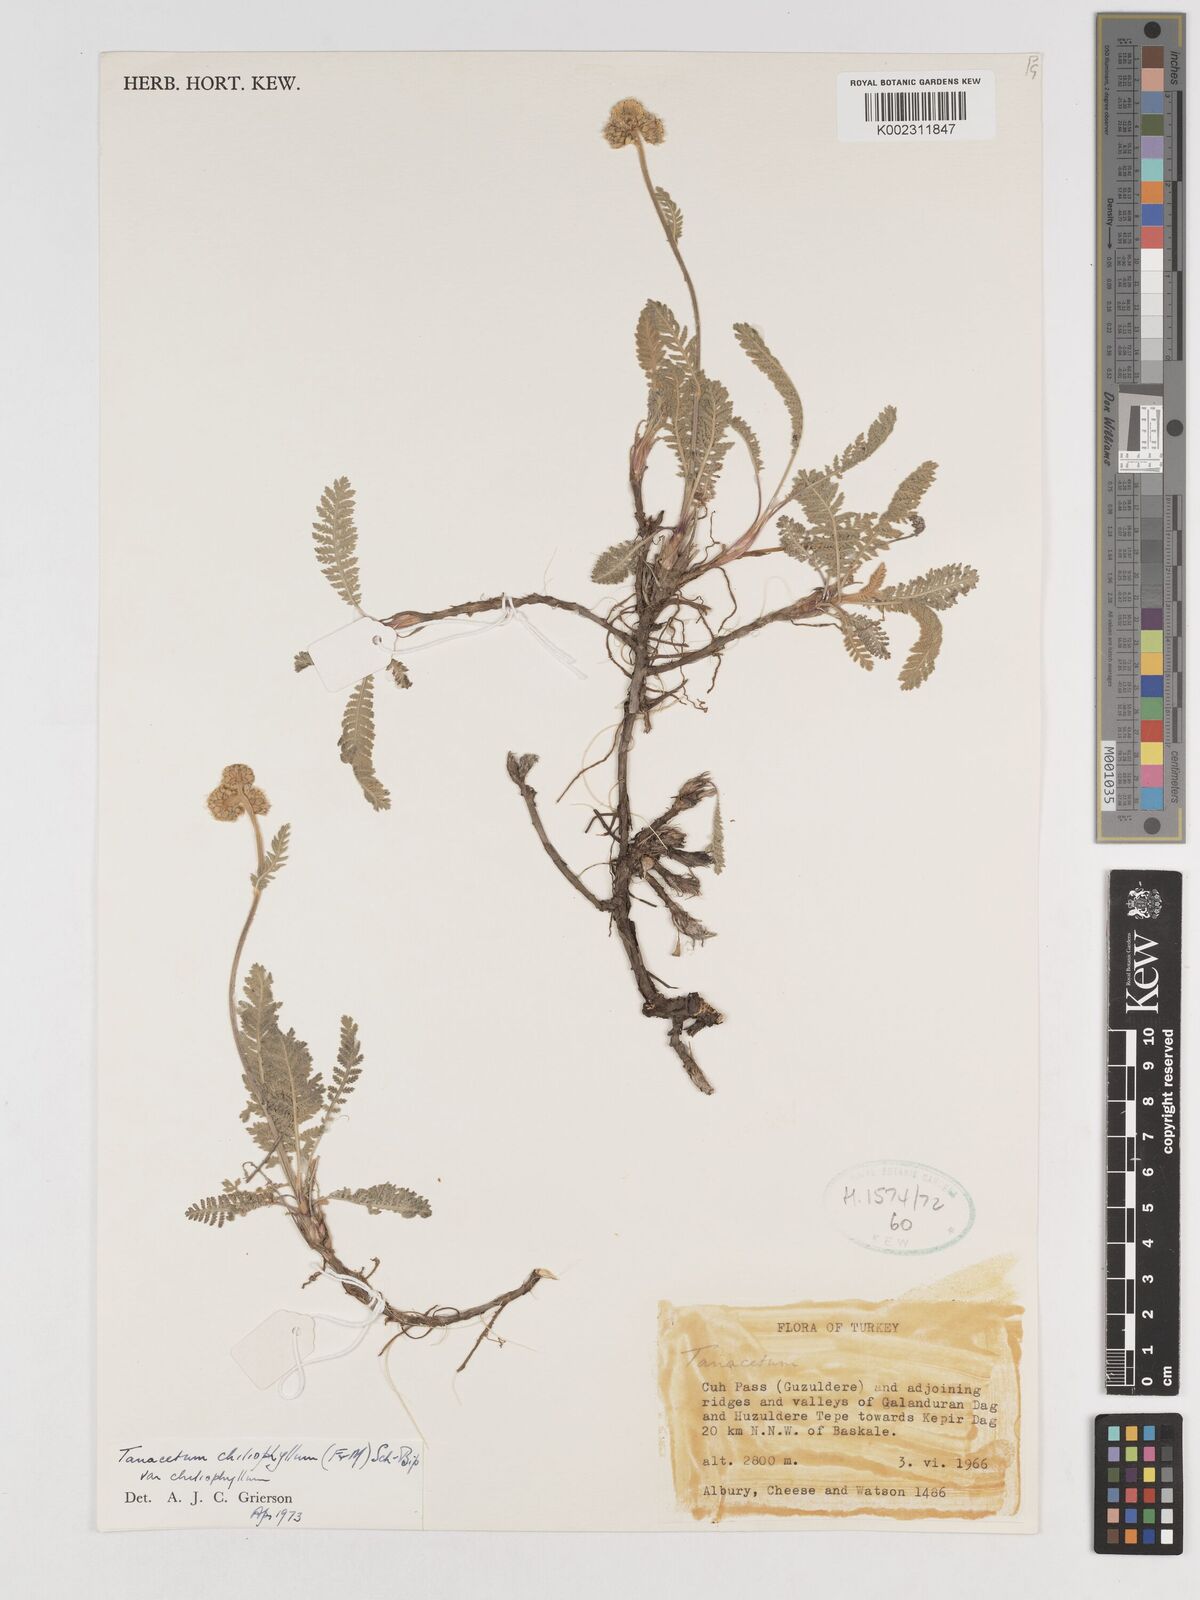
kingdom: Plantae
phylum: Tracheophyta
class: Magnoliopsida
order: Asterales
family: Asteraceae
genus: Tanacetum
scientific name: Tanacetum aureum
